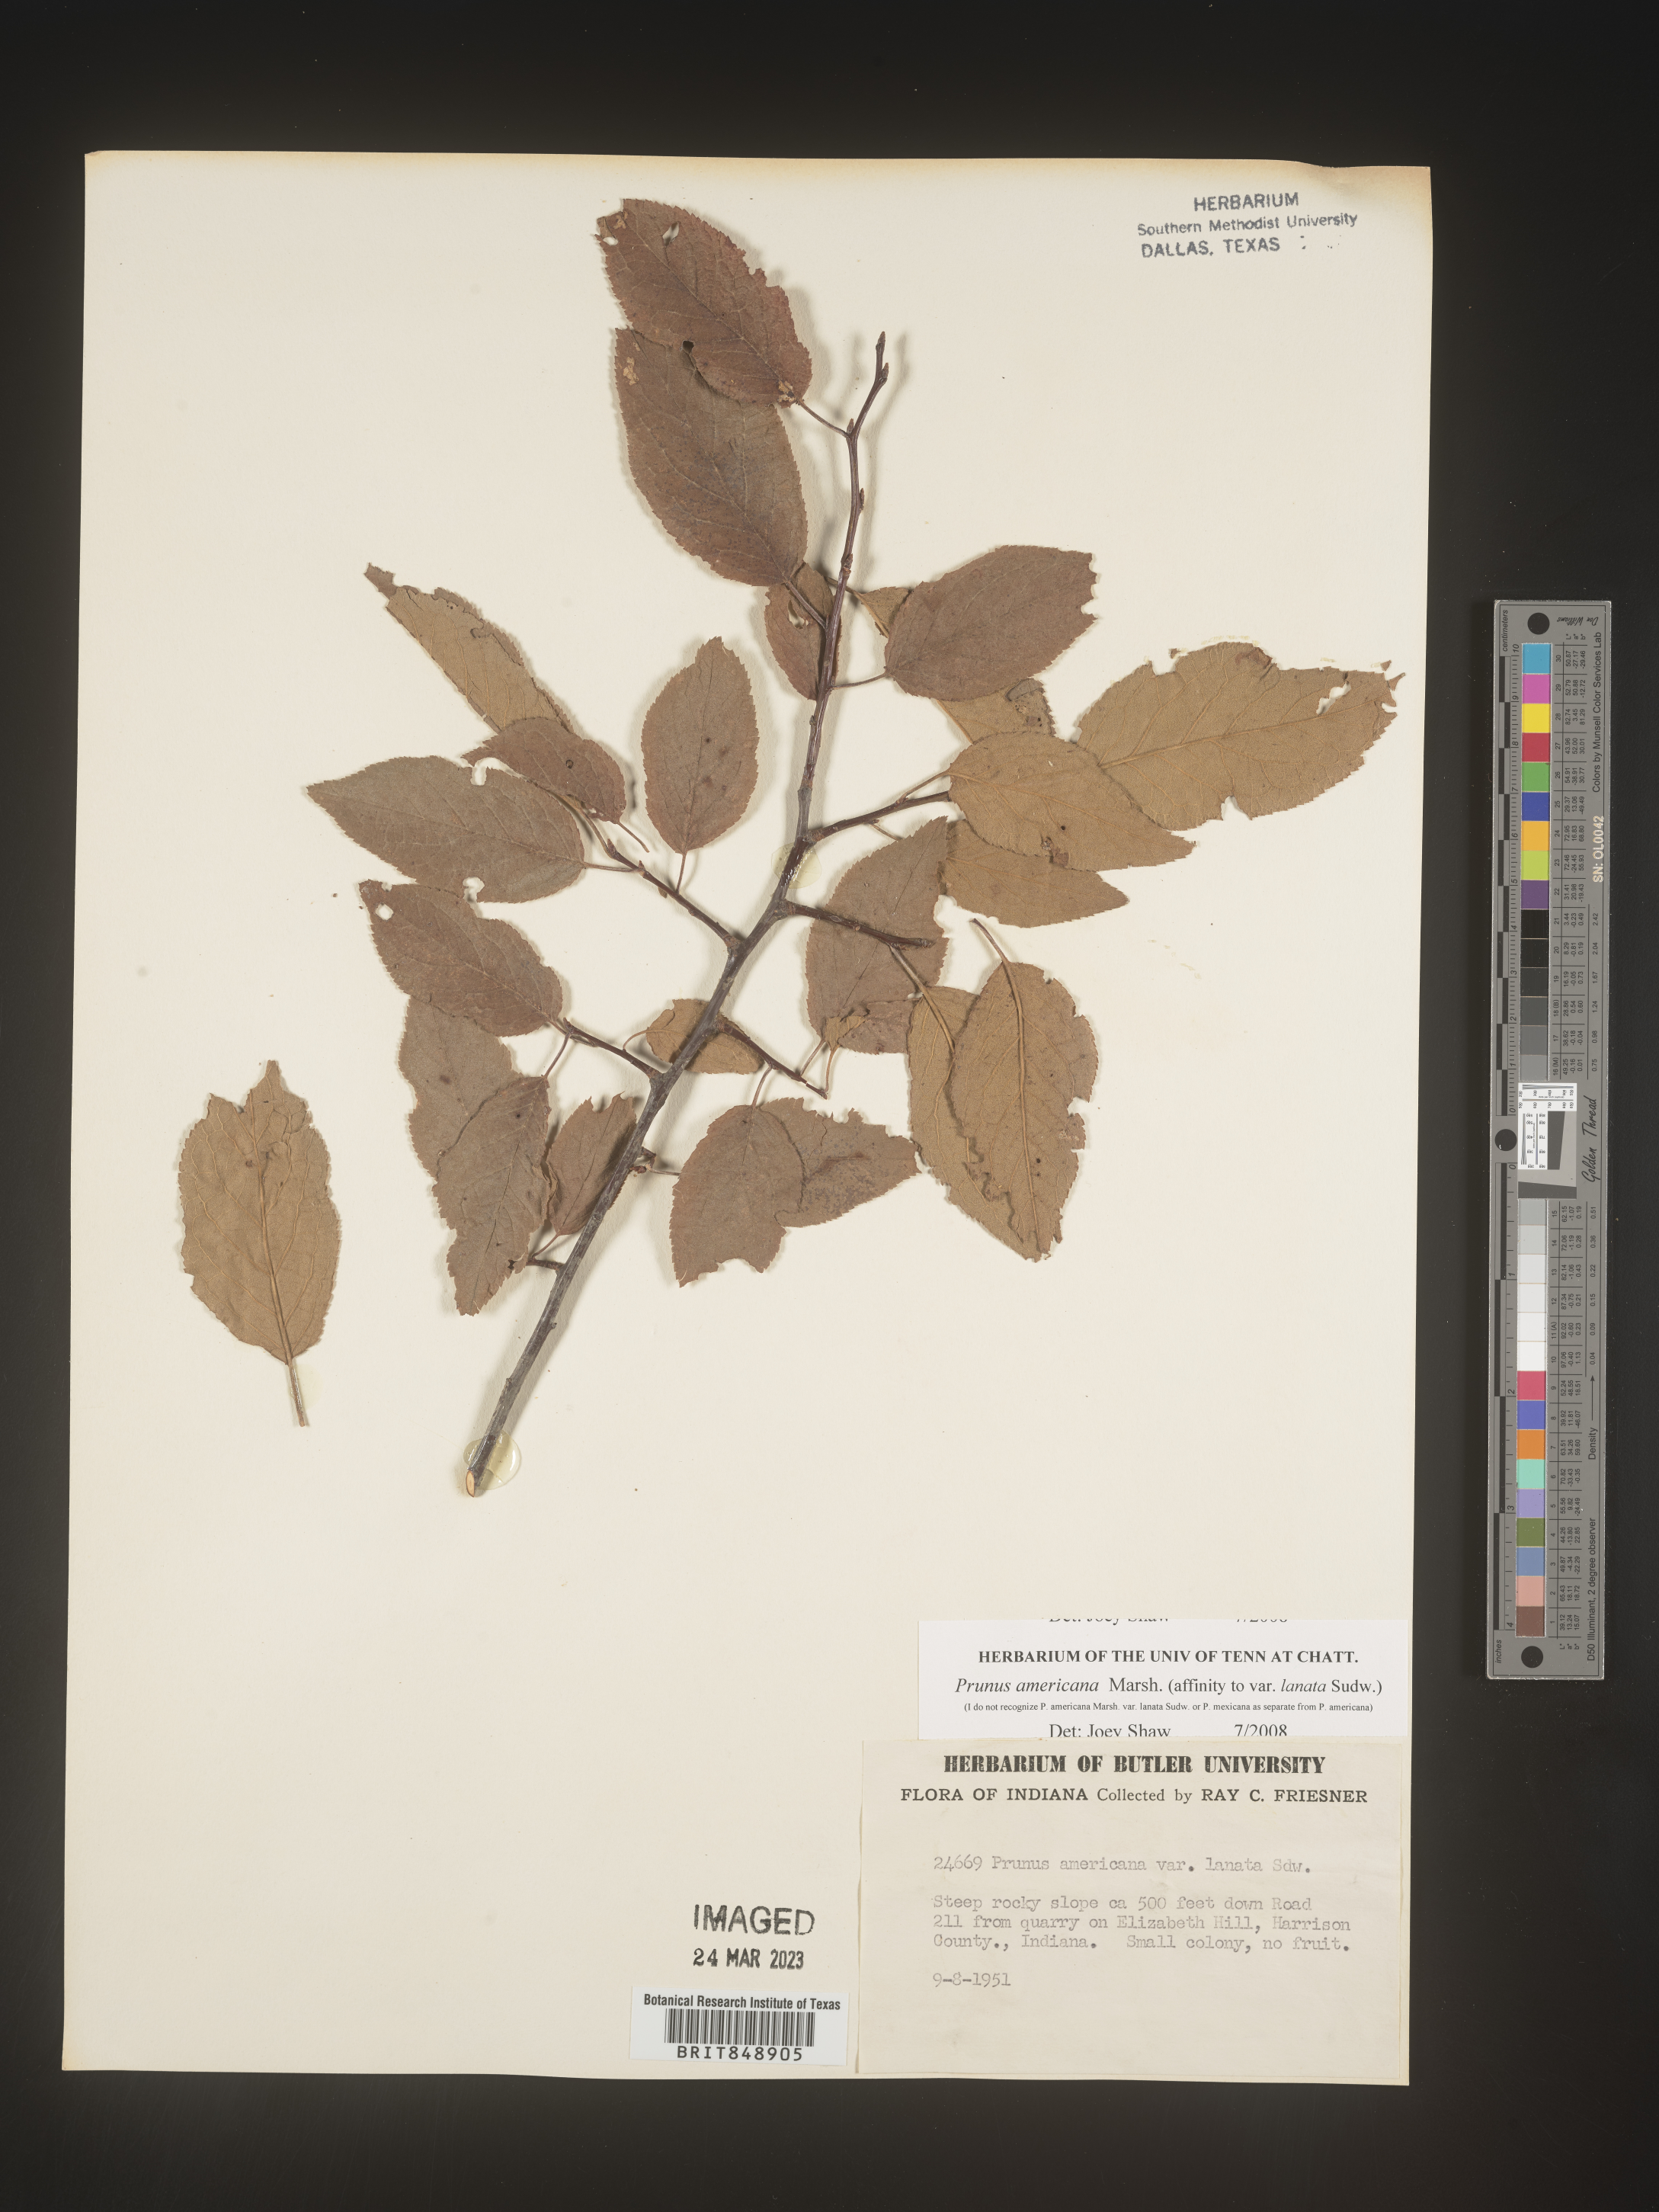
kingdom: Plantae
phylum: Tracheophyta
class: Magnoliopsida
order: Rosales
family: Rosaceae
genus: Prunus
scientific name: Prunus americana
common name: American plum
